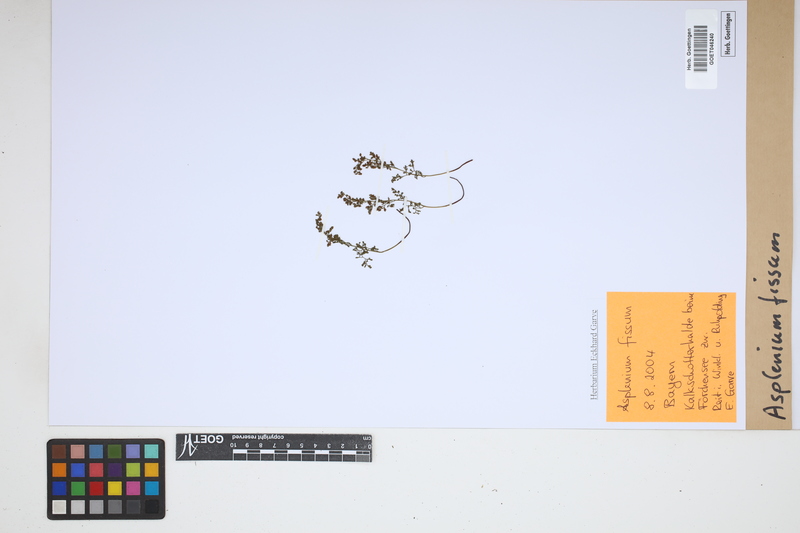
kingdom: Plantae
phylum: Tracheophyta
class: Polypodiopsida
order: Polypodiales
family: Aspleniaceae
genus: Asplenium
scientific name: Asplenium fissum
